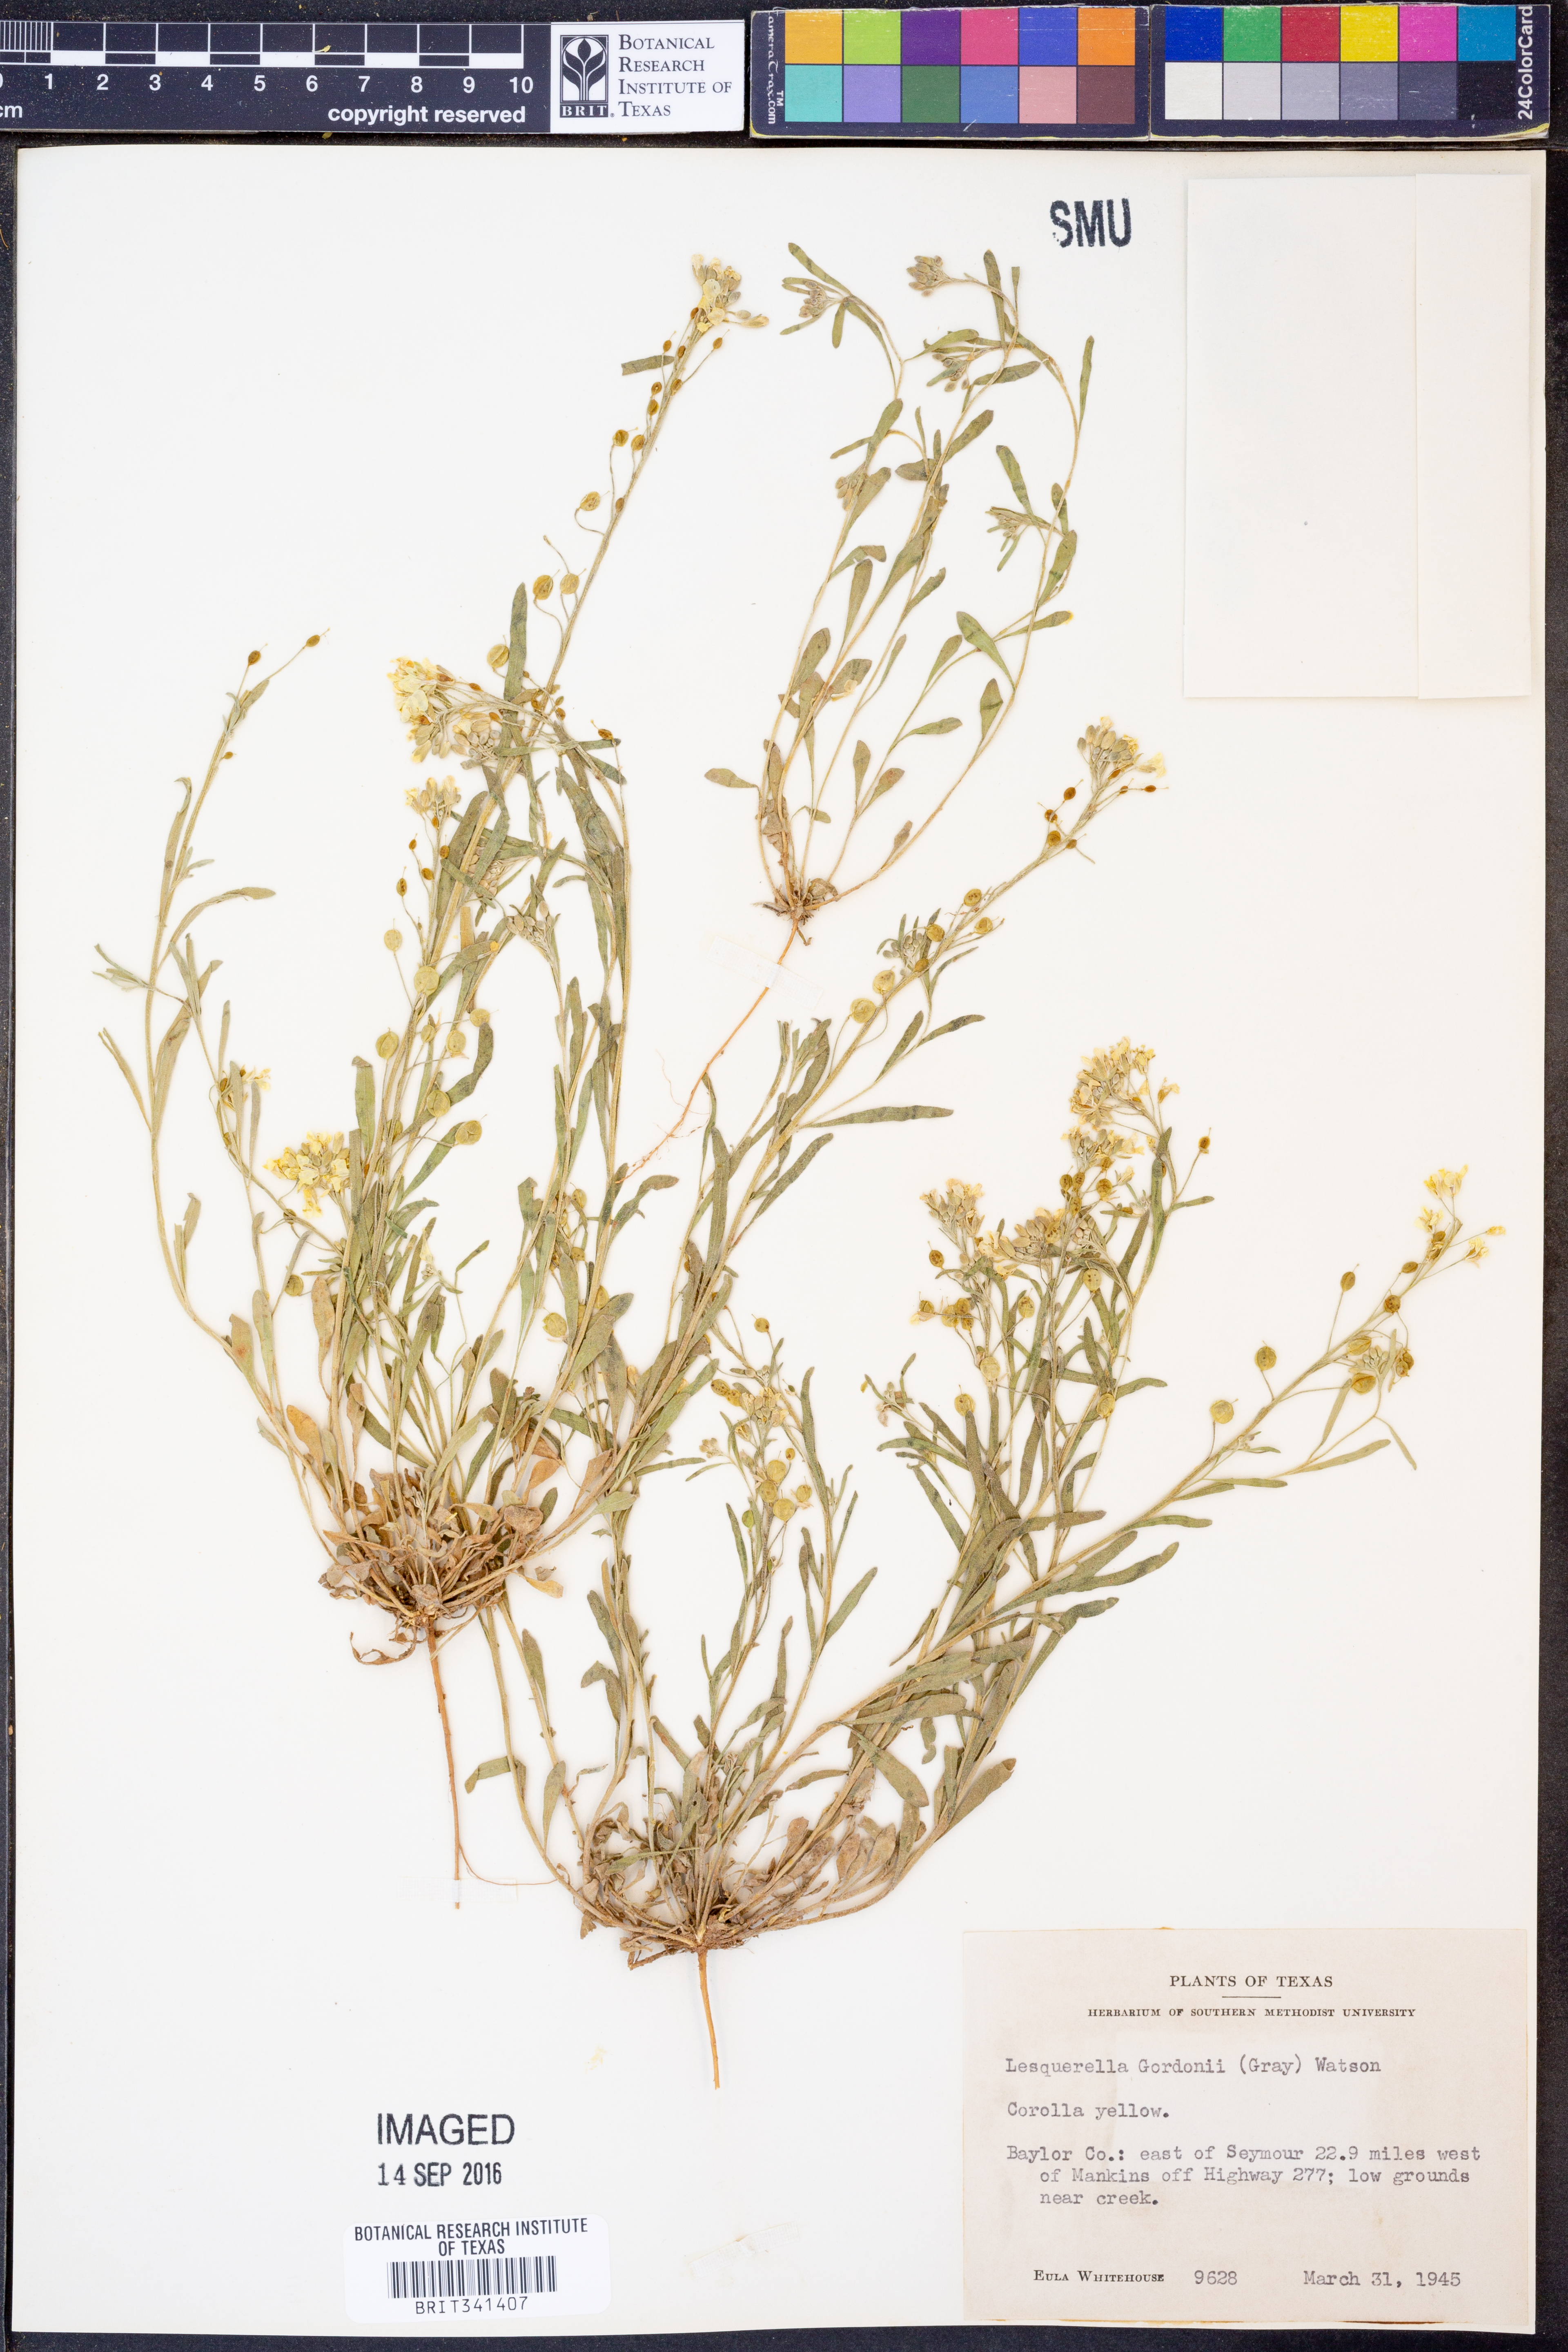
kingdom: Plantae
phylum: Tracheophyta
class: Magnoliopsida
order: Brassicales
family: Brassicaceae
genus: Physaria
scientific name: Physaria gordonii
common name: Gordon's bladderpod
